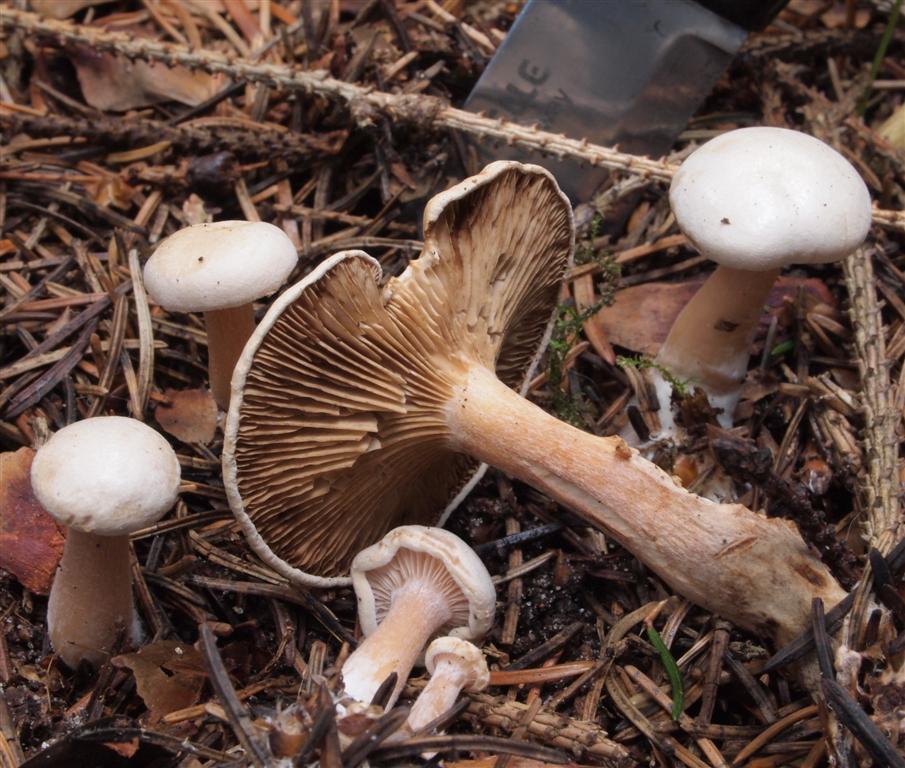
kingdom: Fungi
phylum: Basidiomycota
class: Agaricomycetes
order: Agaricales
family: Tricholomataceae
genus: Ripartites
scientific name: Ripartites tricholoma
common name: almindelig skæghat
